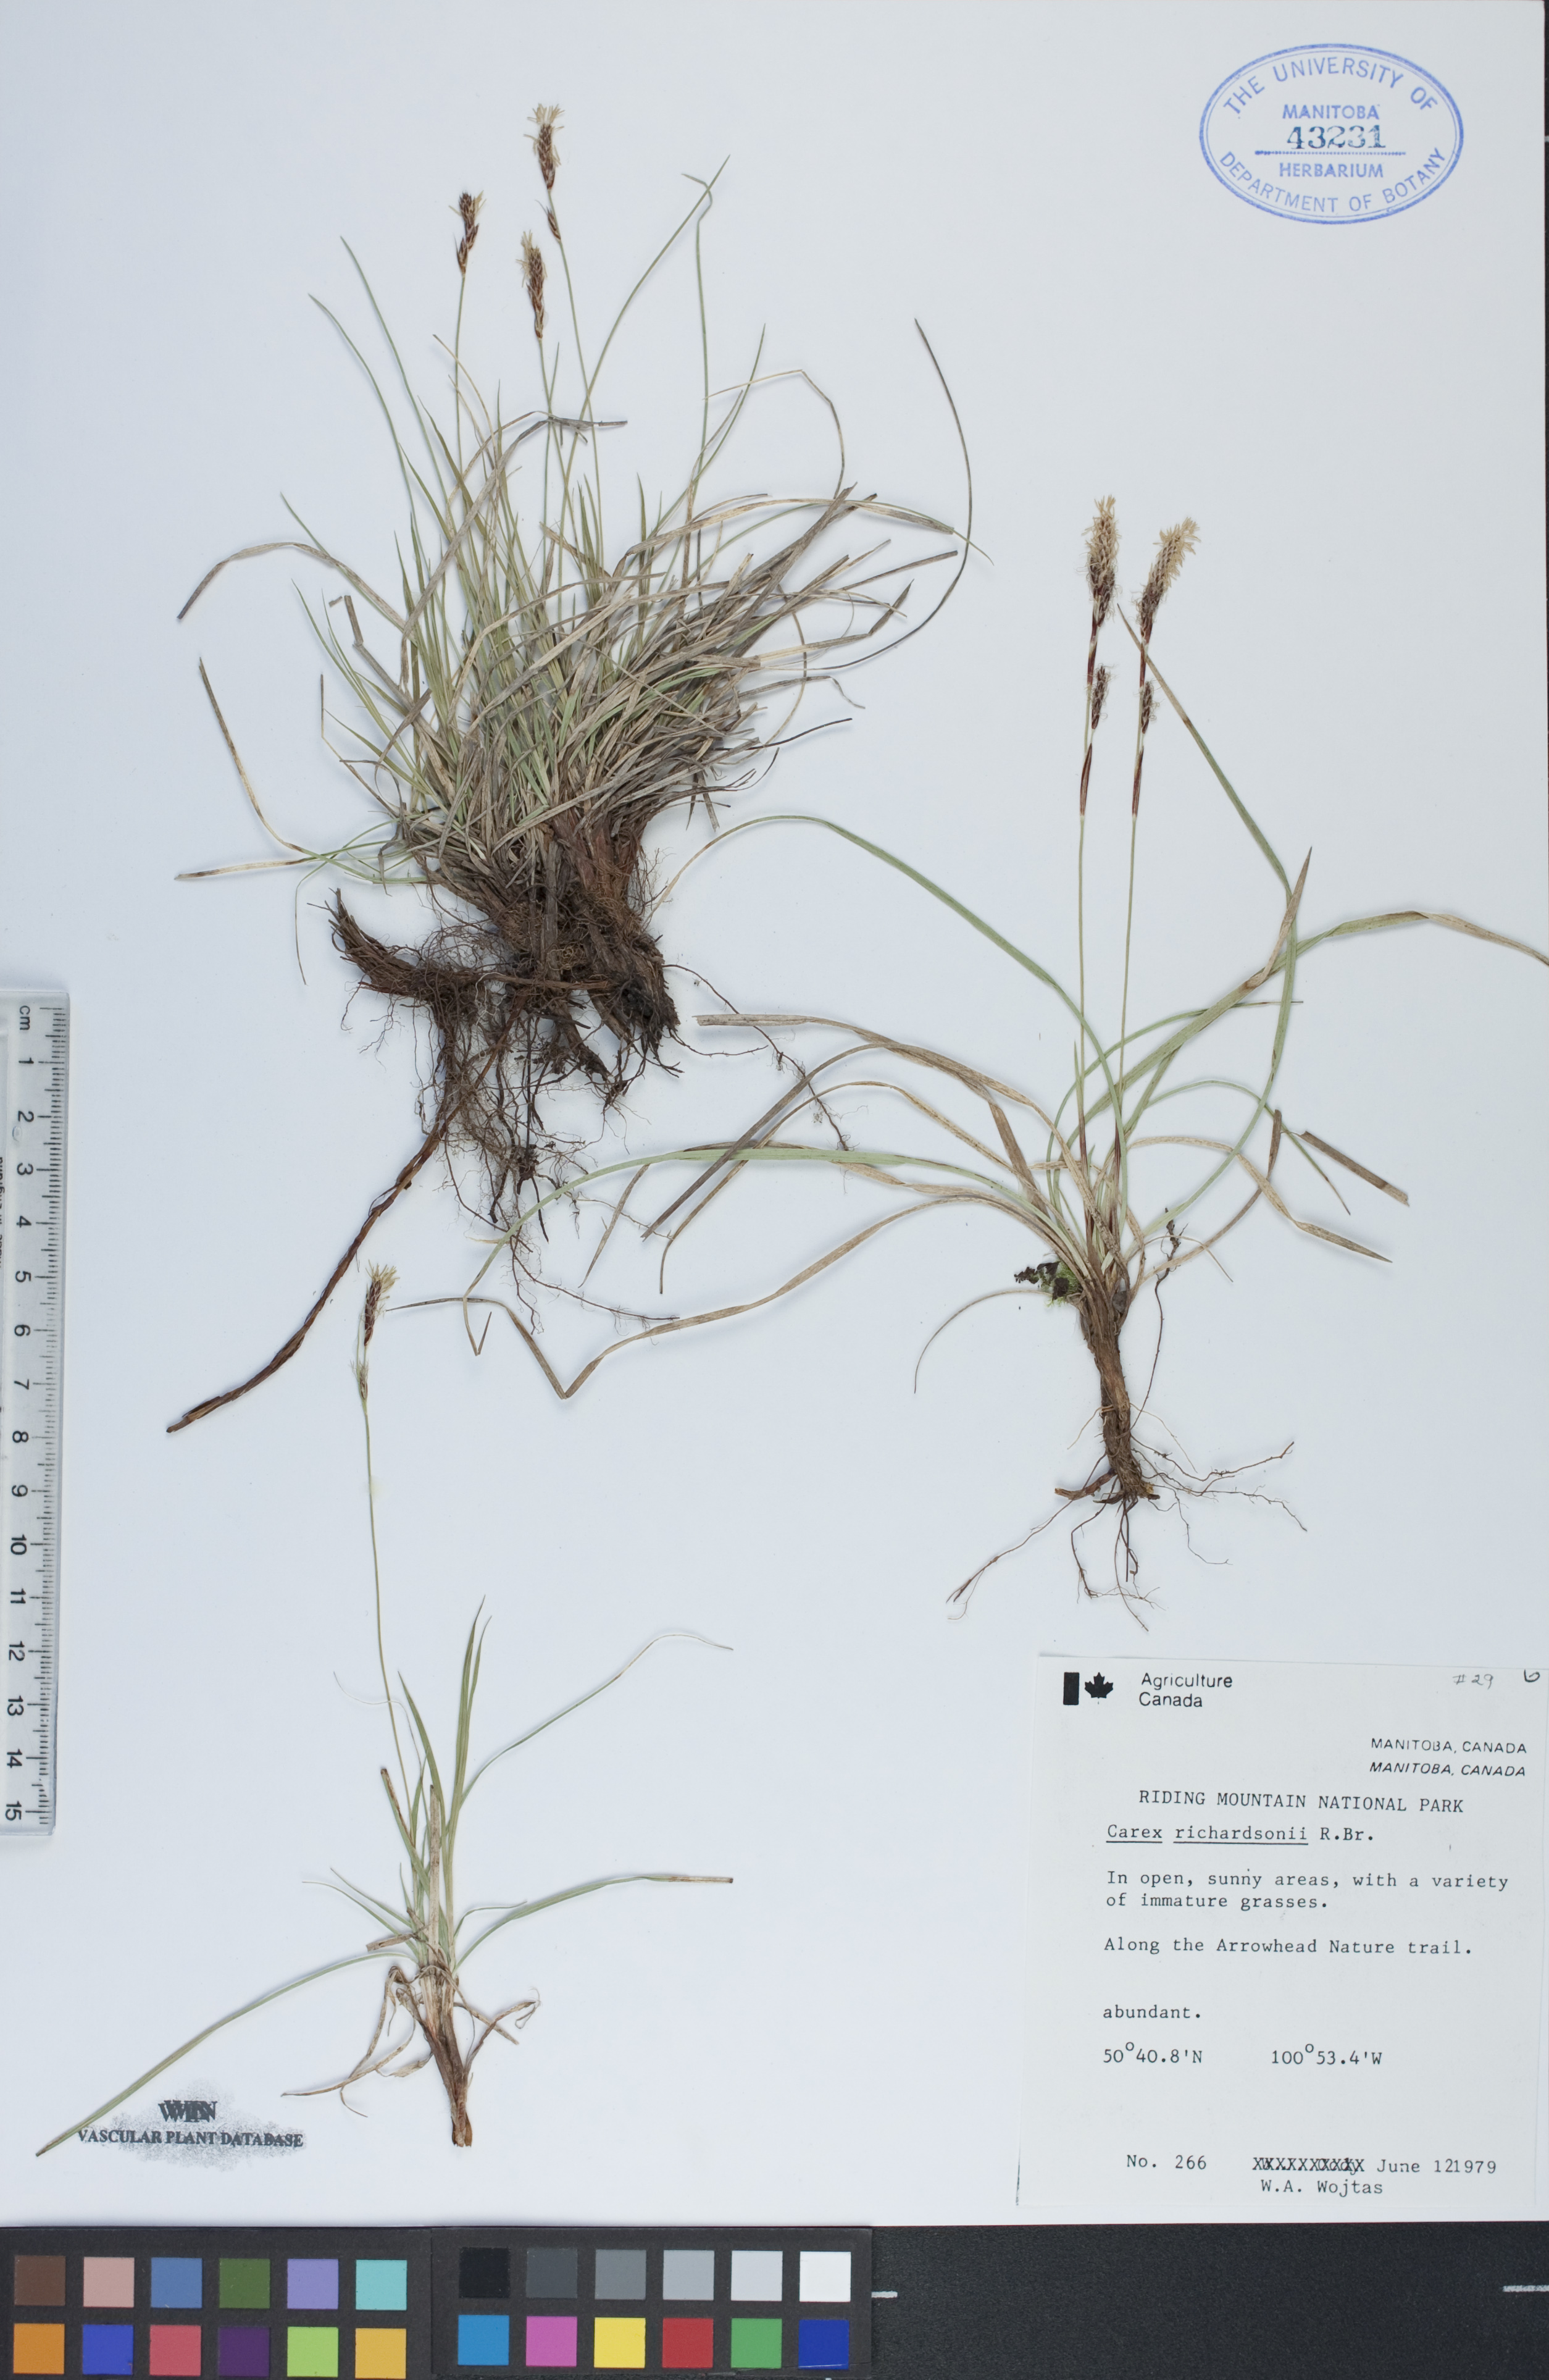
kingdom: Plantae
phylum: Tracheophyta
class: Liliopsida
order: Poales
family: Cyperaceae
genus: Carex
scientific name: Carex richardsonii
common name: Prairie hummock sedge
